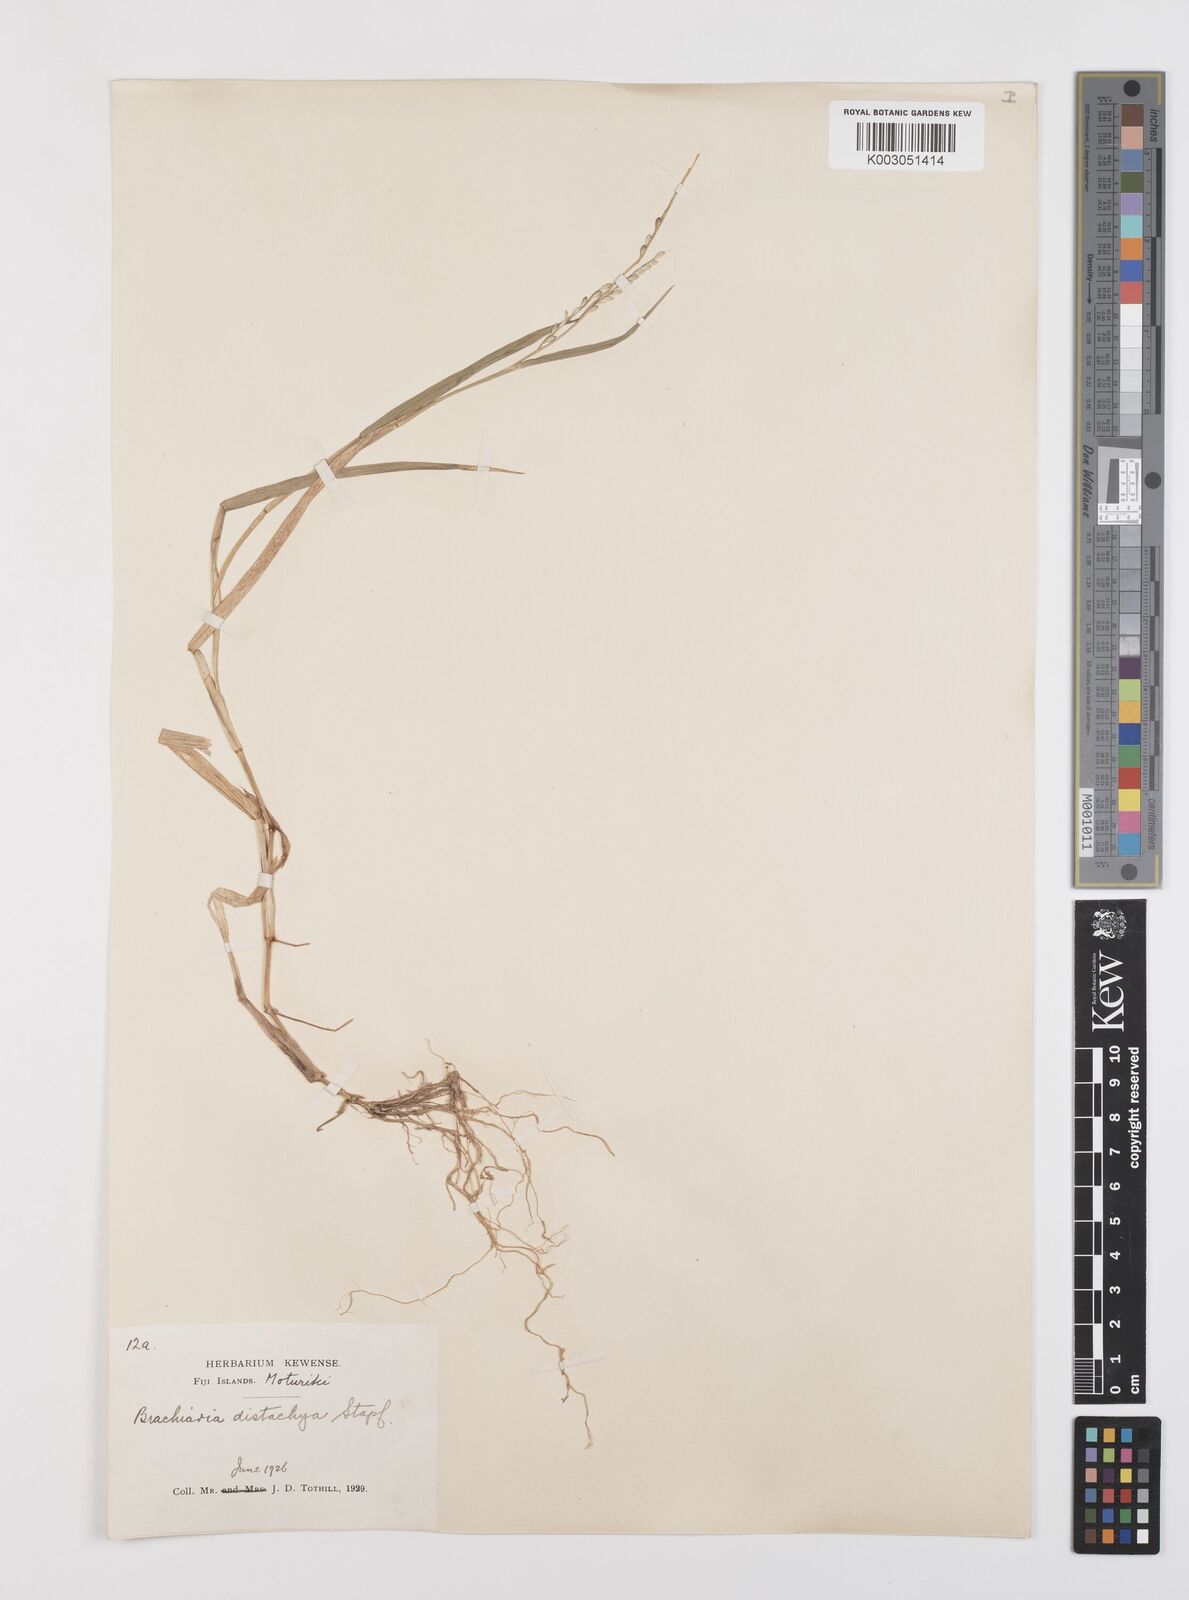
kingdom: Plantae
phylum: Tracheophyta
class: Liliopsida
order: Poales
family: Poaceae
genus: Urochloa
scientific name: Urochloa subquadripara
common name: Armgrass millet
